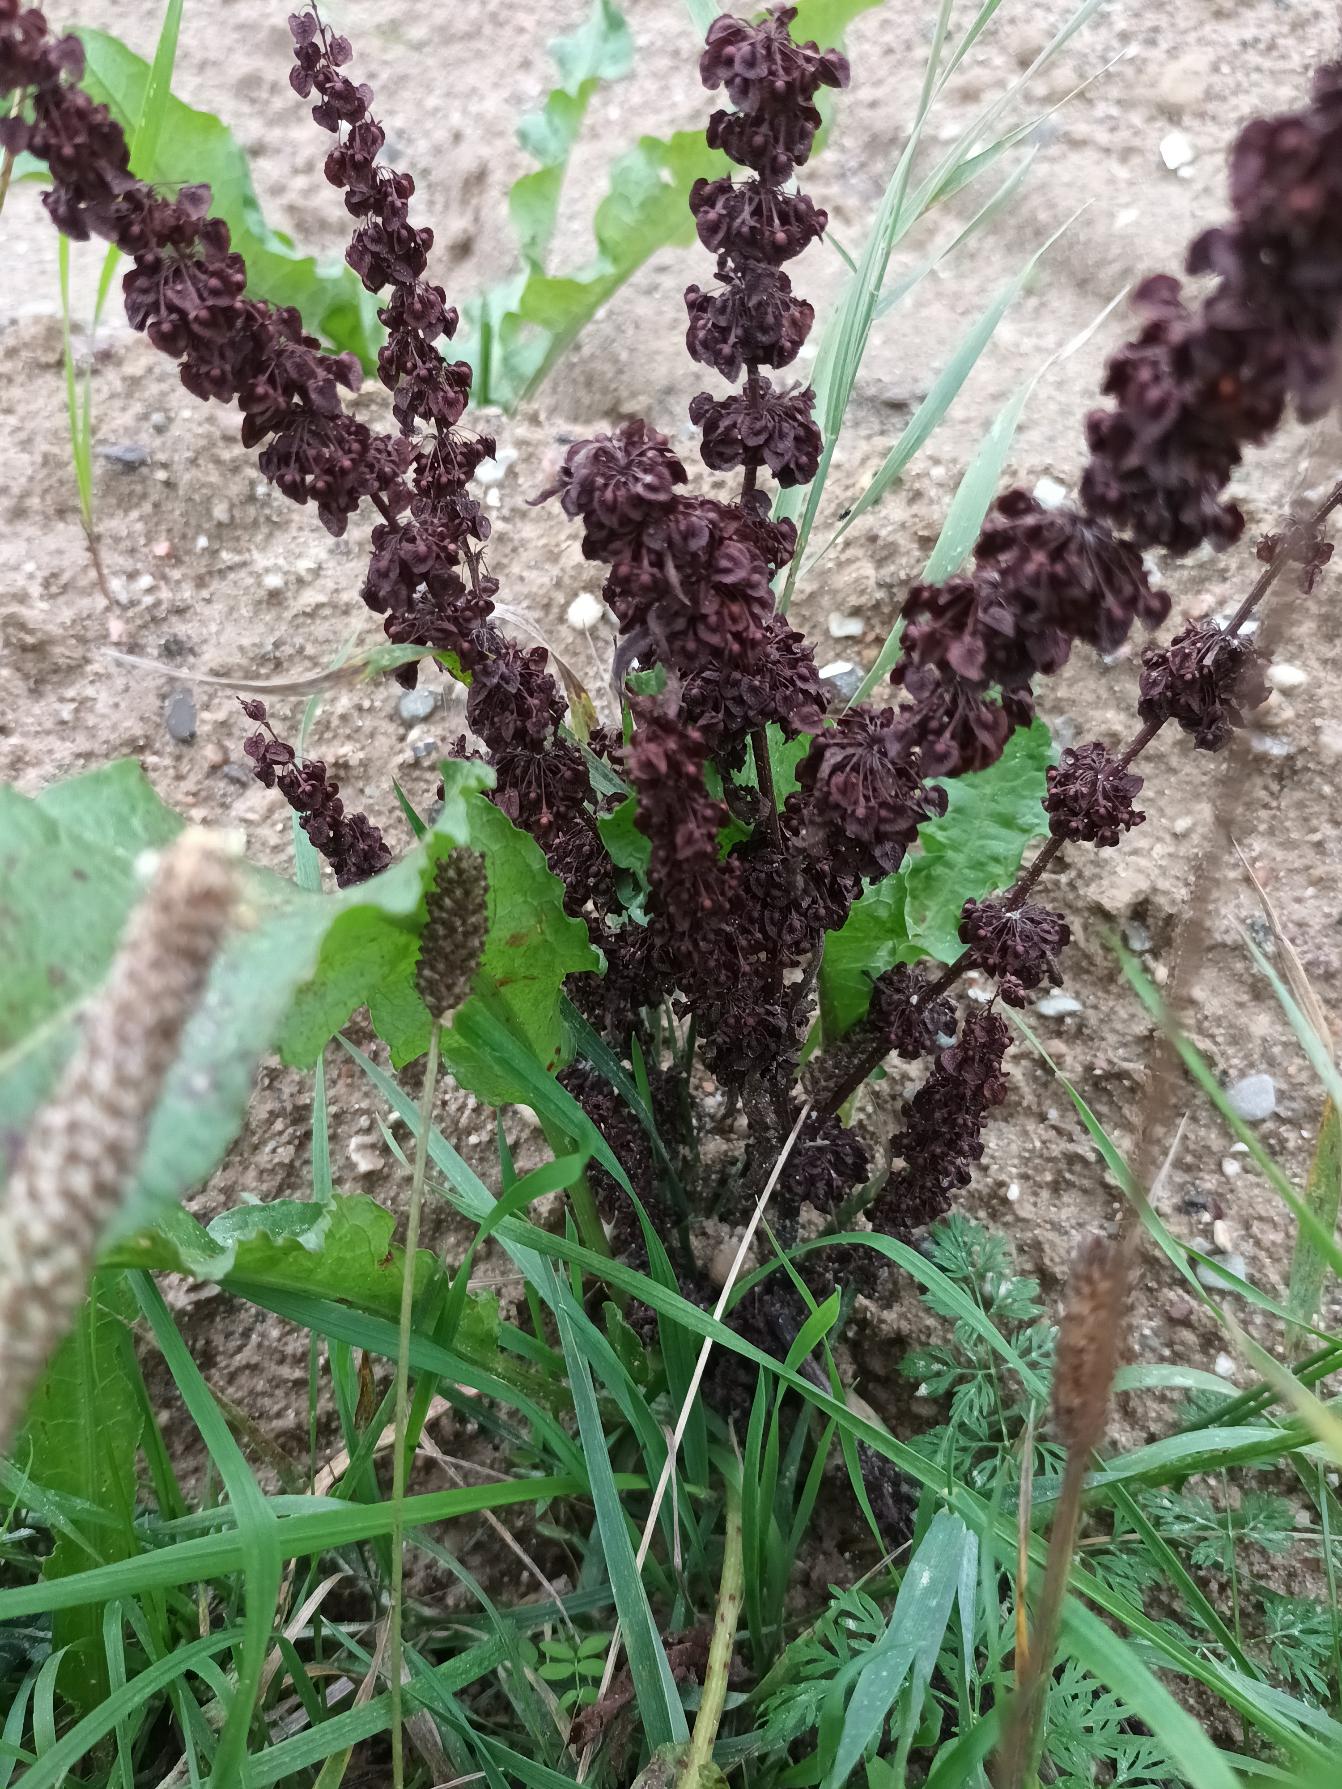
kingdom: Plantae
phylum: Tracheophyta
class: Magnoliopsida
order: Caryophyllales
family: Polygonaceae
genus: Rumex
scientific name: Rumex crispus
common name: Kruset skræppe
